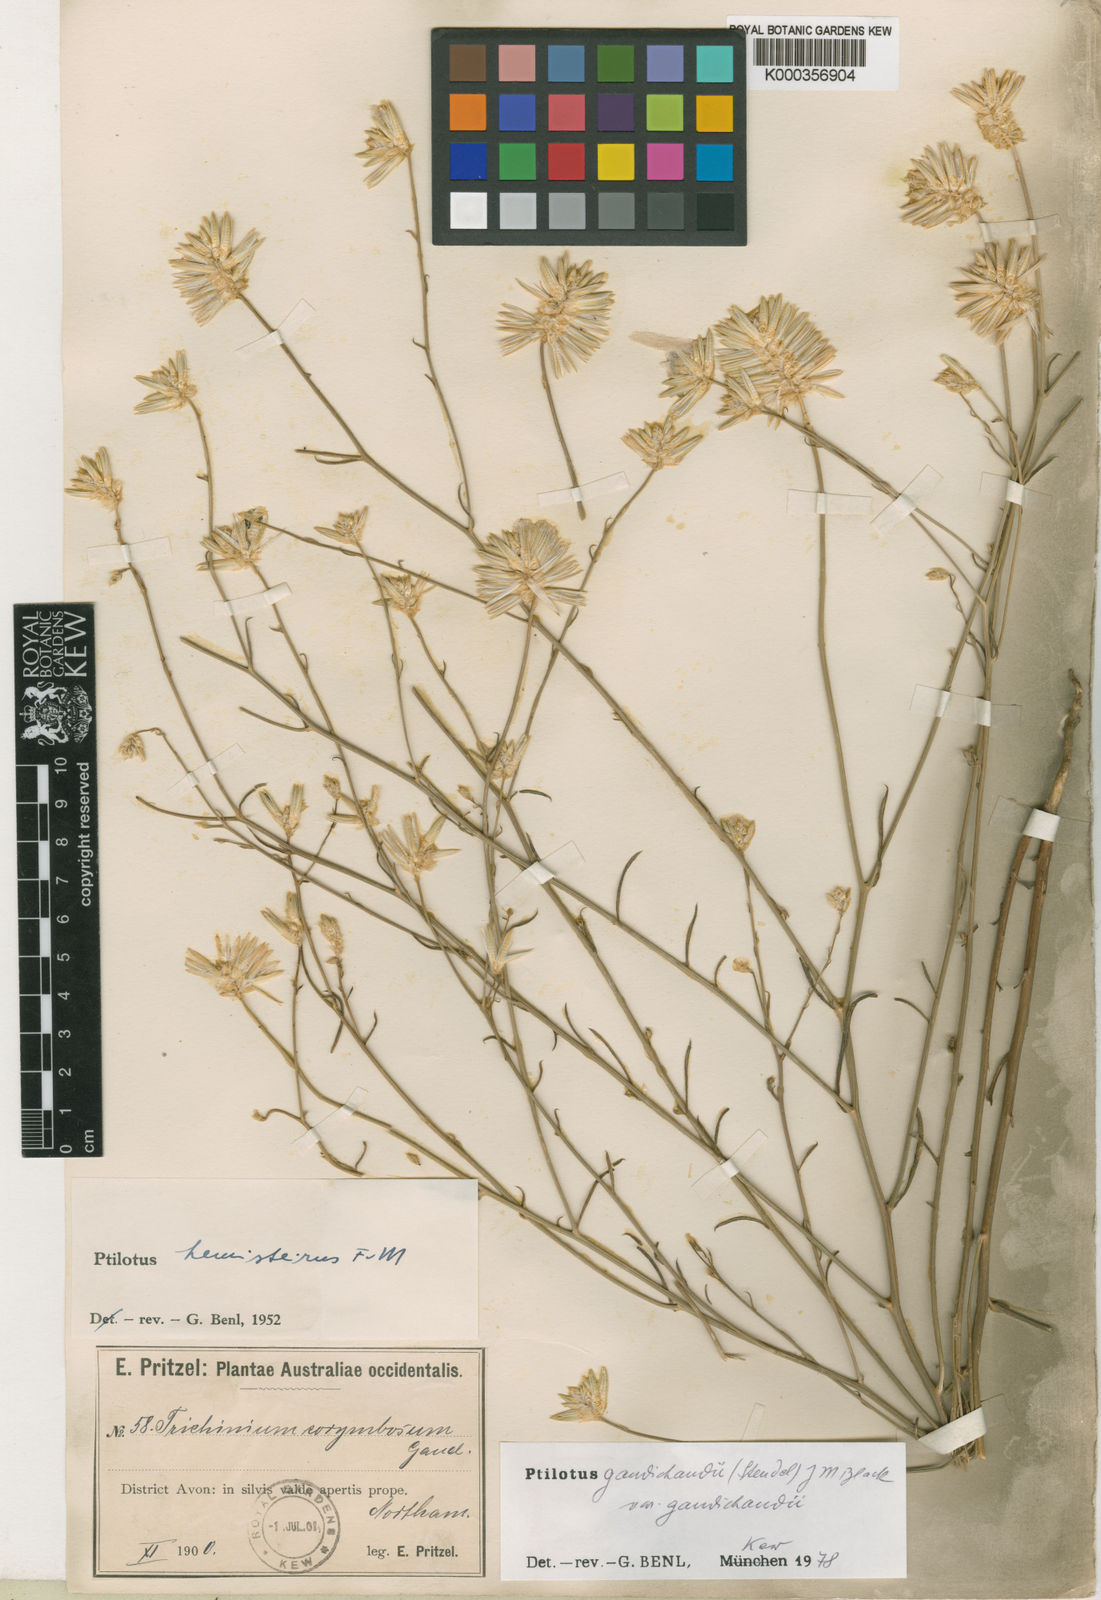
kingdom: Plantae
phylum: Tracheophyta
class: Magnoliopsida
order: Caryophyllales
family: Amaranthaceae
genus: Ptilotus
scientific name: Ptilotus
